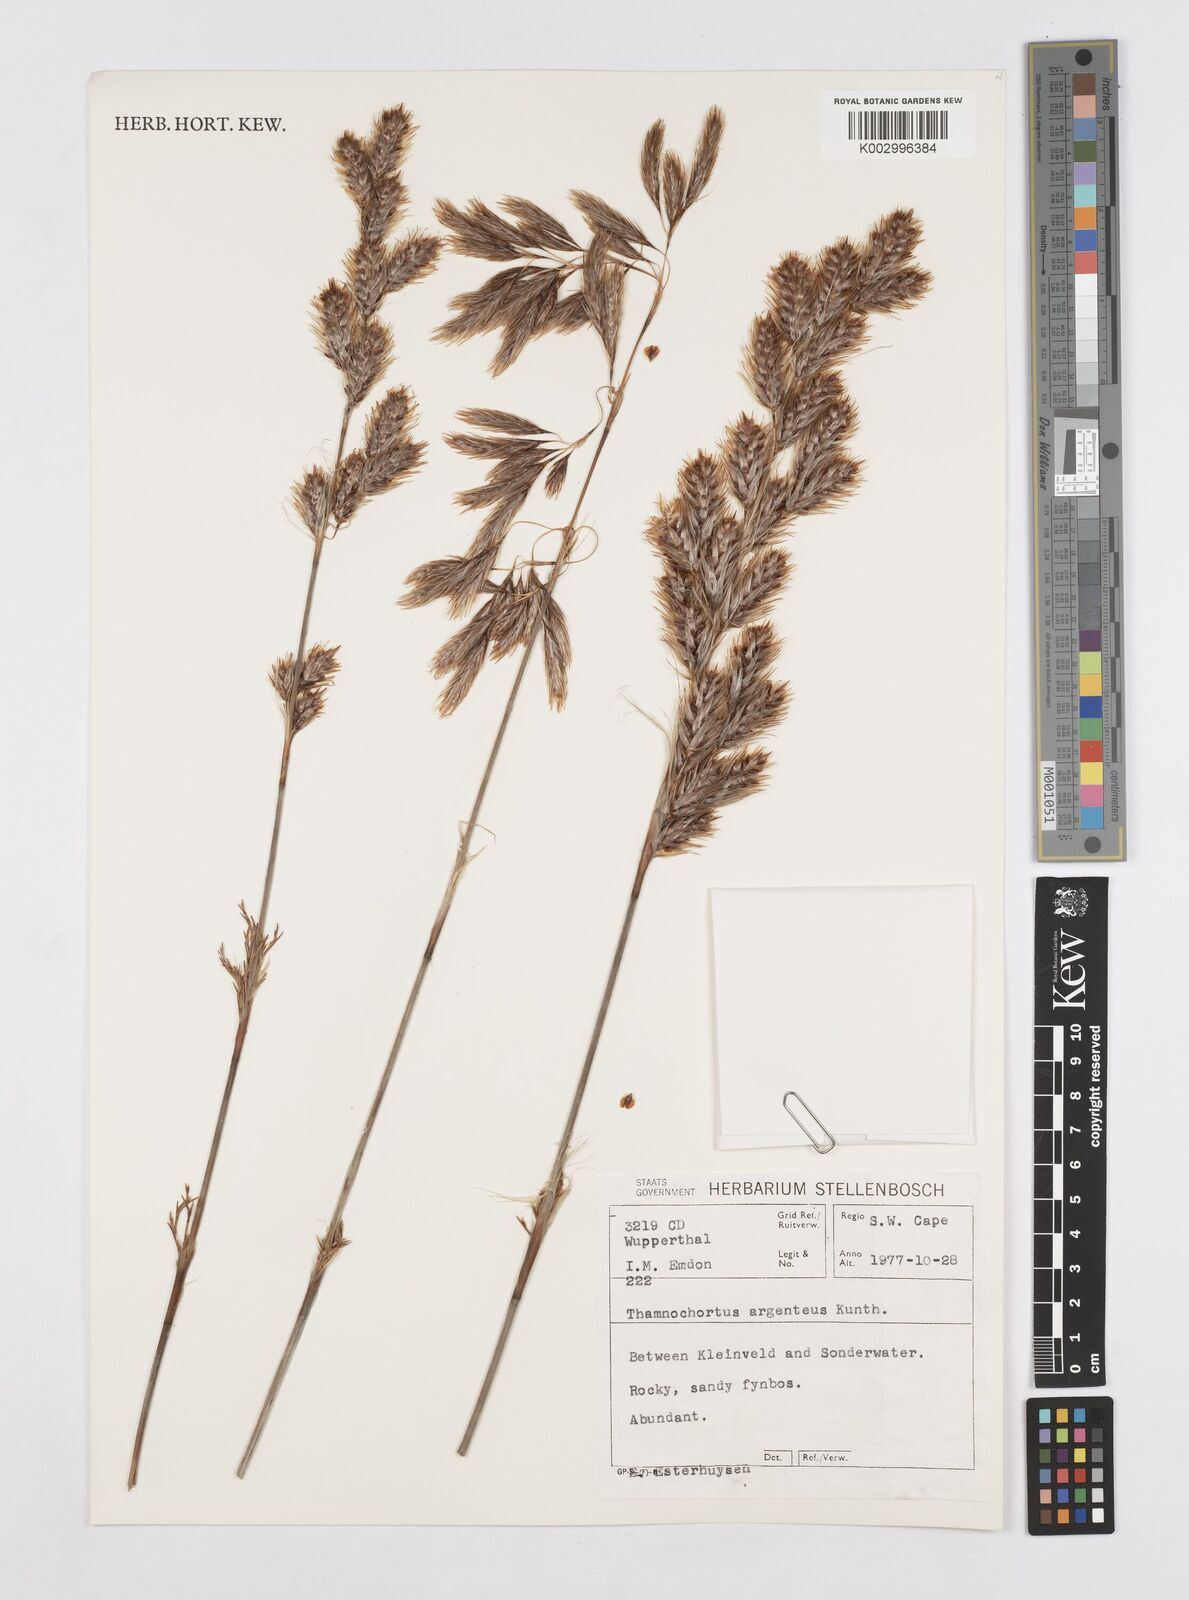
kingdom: Plantae
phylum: Tracheophyta
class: Liliopsida
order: Poales
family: Restionaceae
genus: Hypodiscus
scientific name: Hypodiscus argenteus
